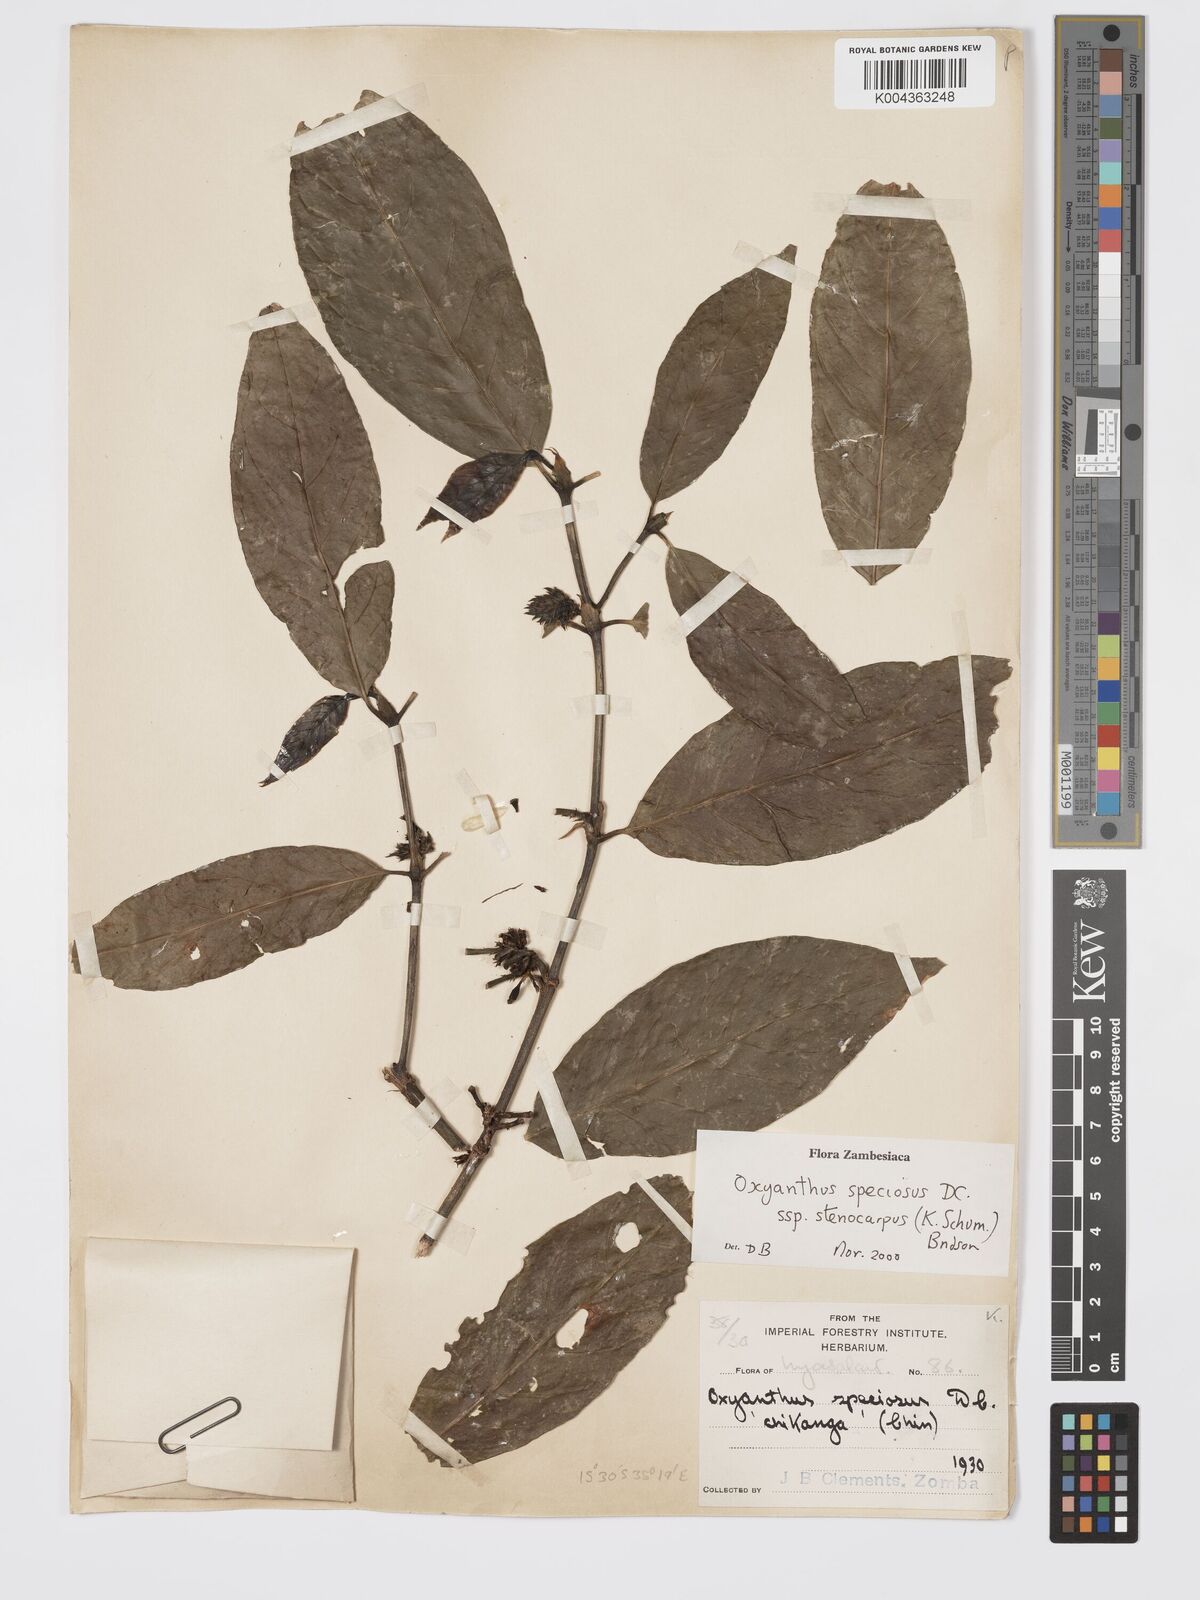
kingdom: Plantae
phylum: Tracheophyta
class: Magnoliopsida
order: Gentianales
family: Rubiaceae
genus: Oxyanthus
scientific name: Oxyanthus speciosus
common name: Whipstick loquat
